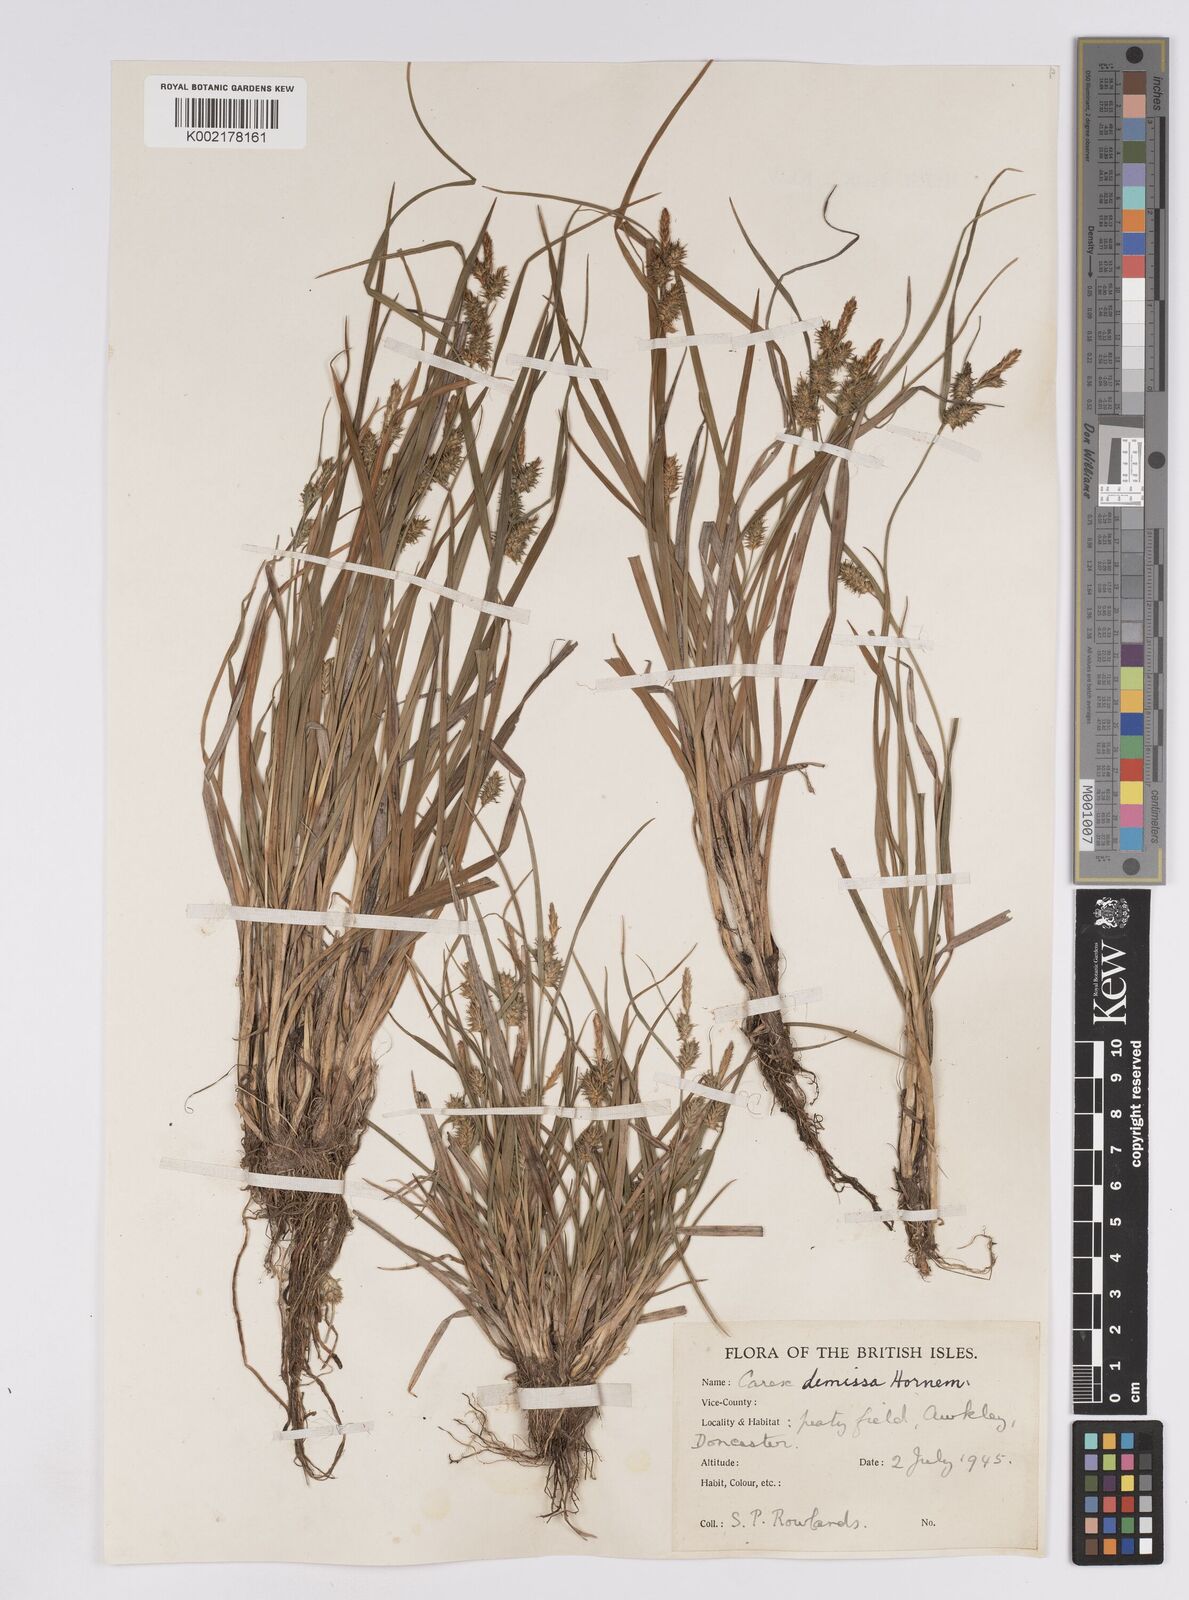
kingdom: Plantae
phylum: Tracheophyta
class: Liliopsida
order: Poales
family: Cyperaceae
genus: Carex
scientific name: Carex demissa
